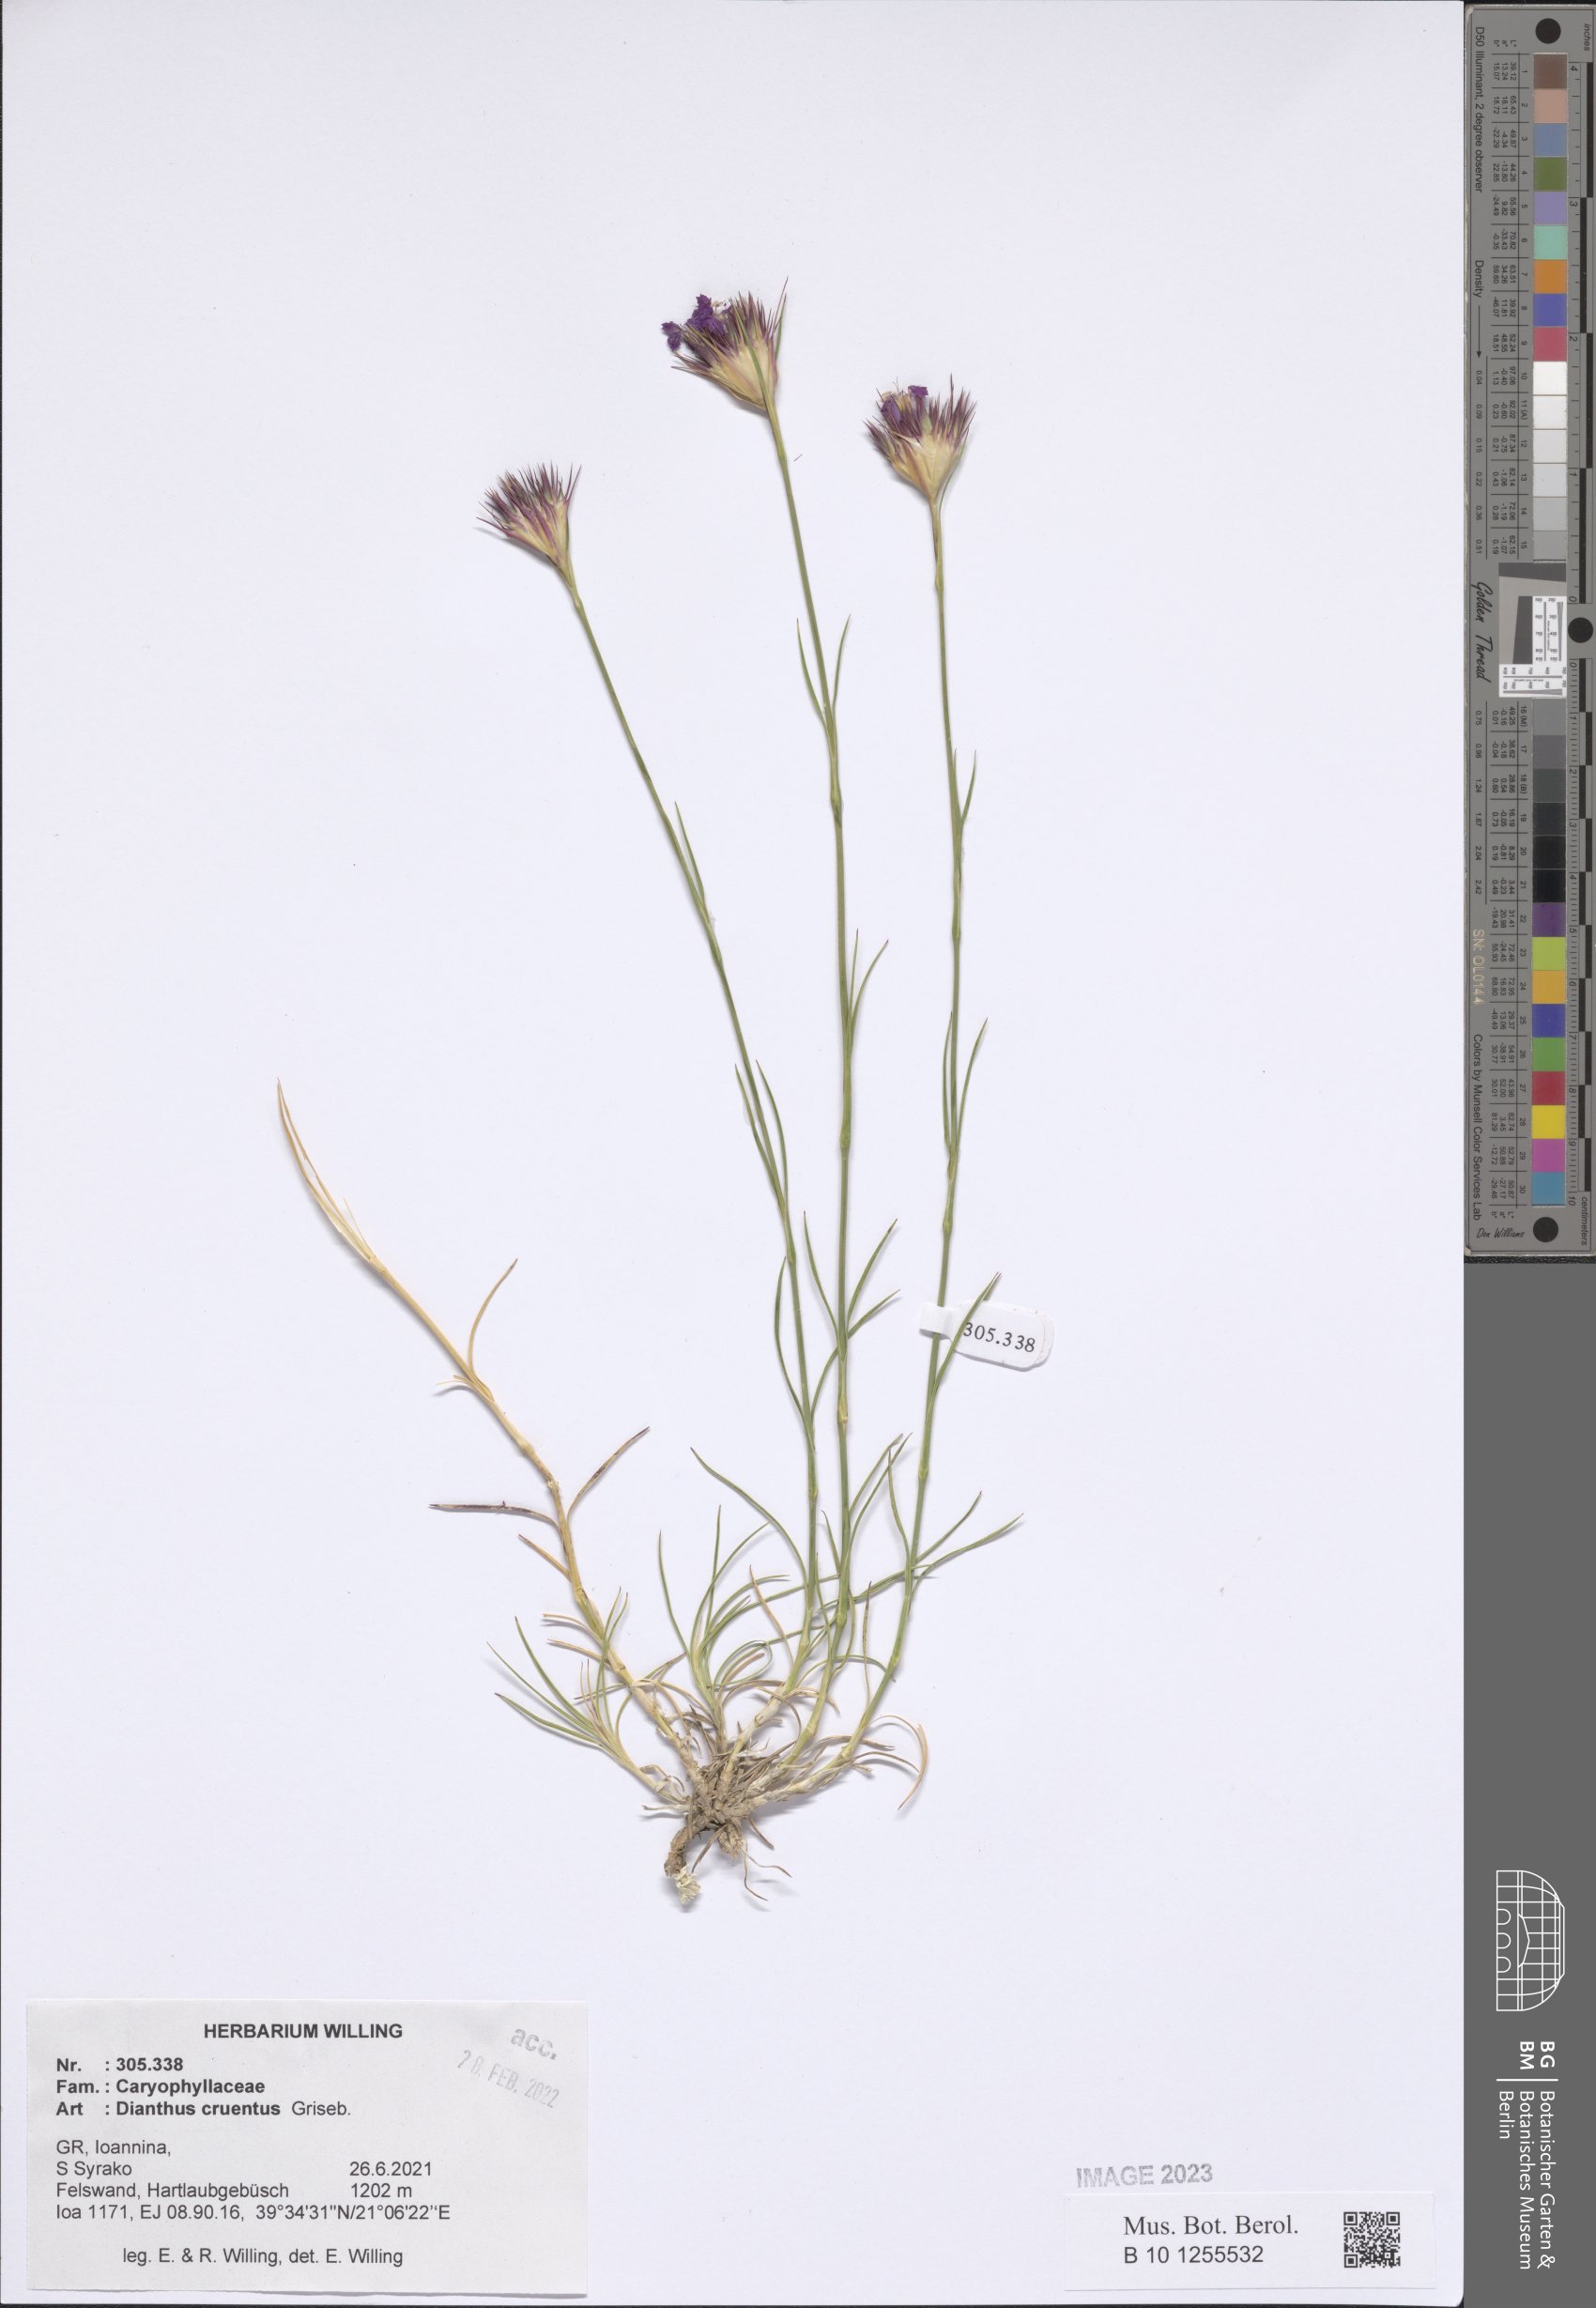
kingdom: Plantae
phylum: Tracheophyta
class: Magnoliopsida
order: Caryophyllales
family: Caryophyllaceae
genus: Dianthus
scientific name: Dianthus cruentus
